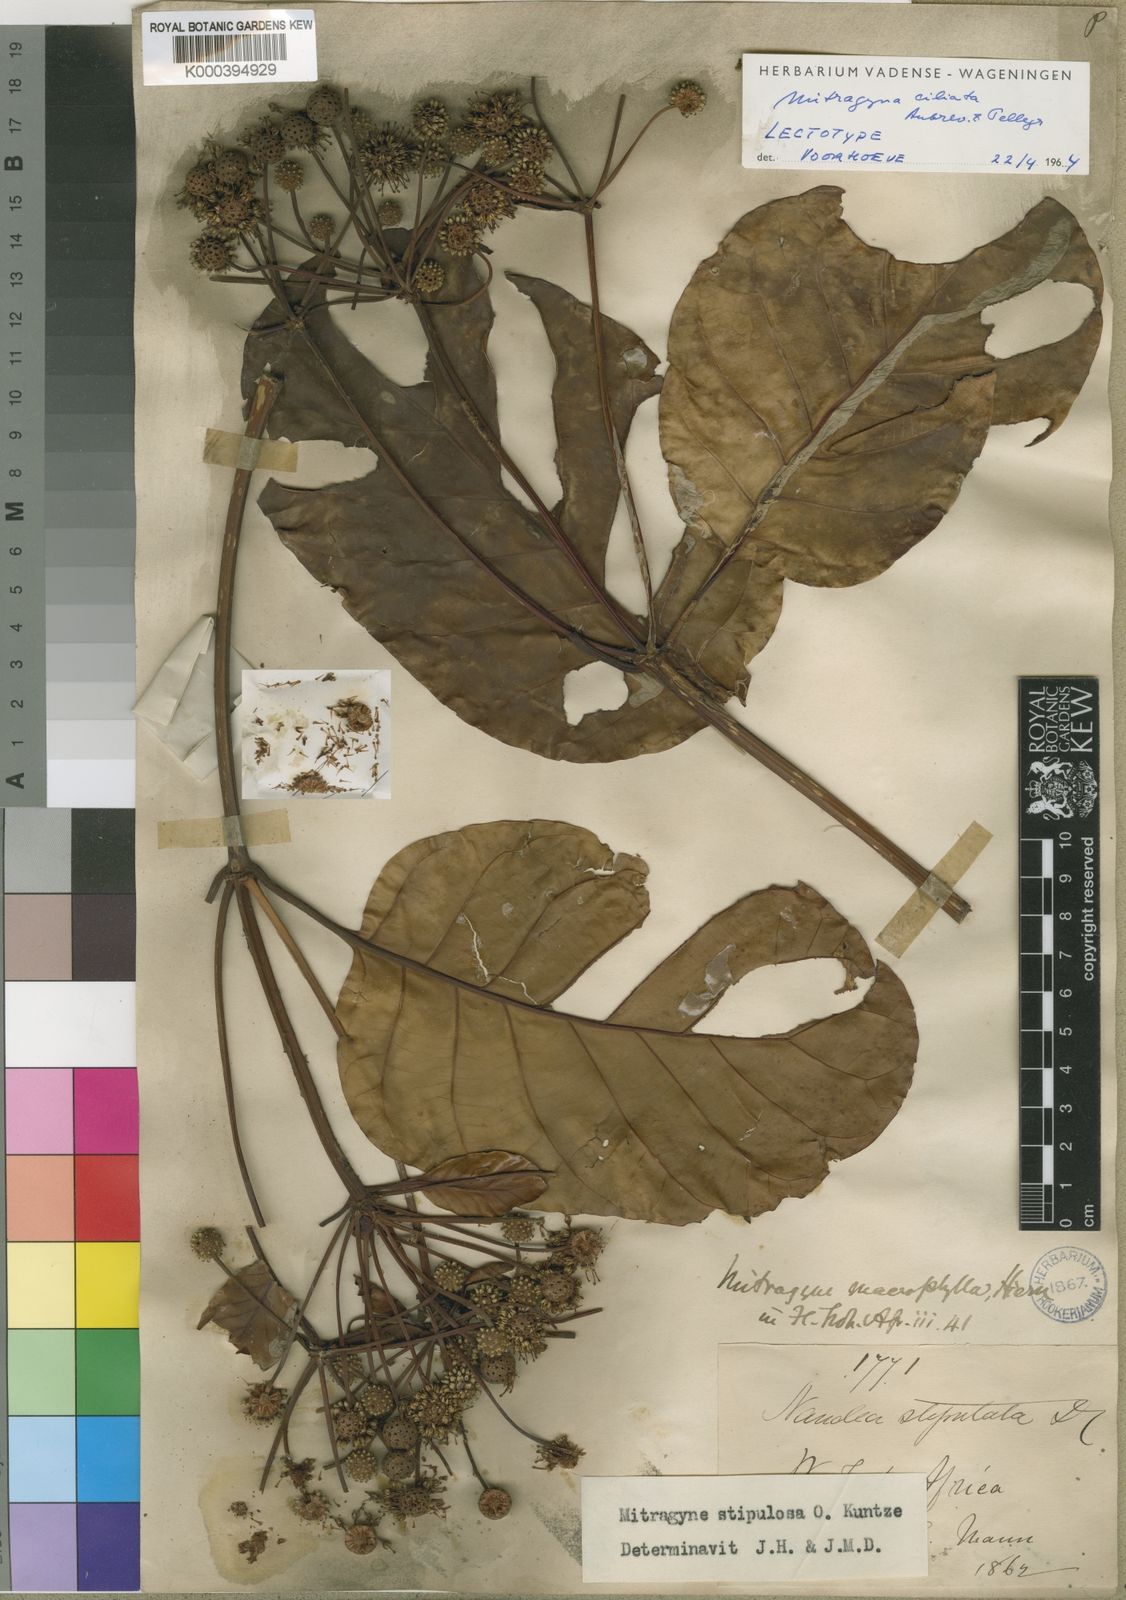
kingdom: Plantae
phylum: Tracheophyta
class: Magnoliopsida
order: Gentianales
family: Rubiaceae
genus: Mitragyna
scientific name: Mitragyna stipulosa
